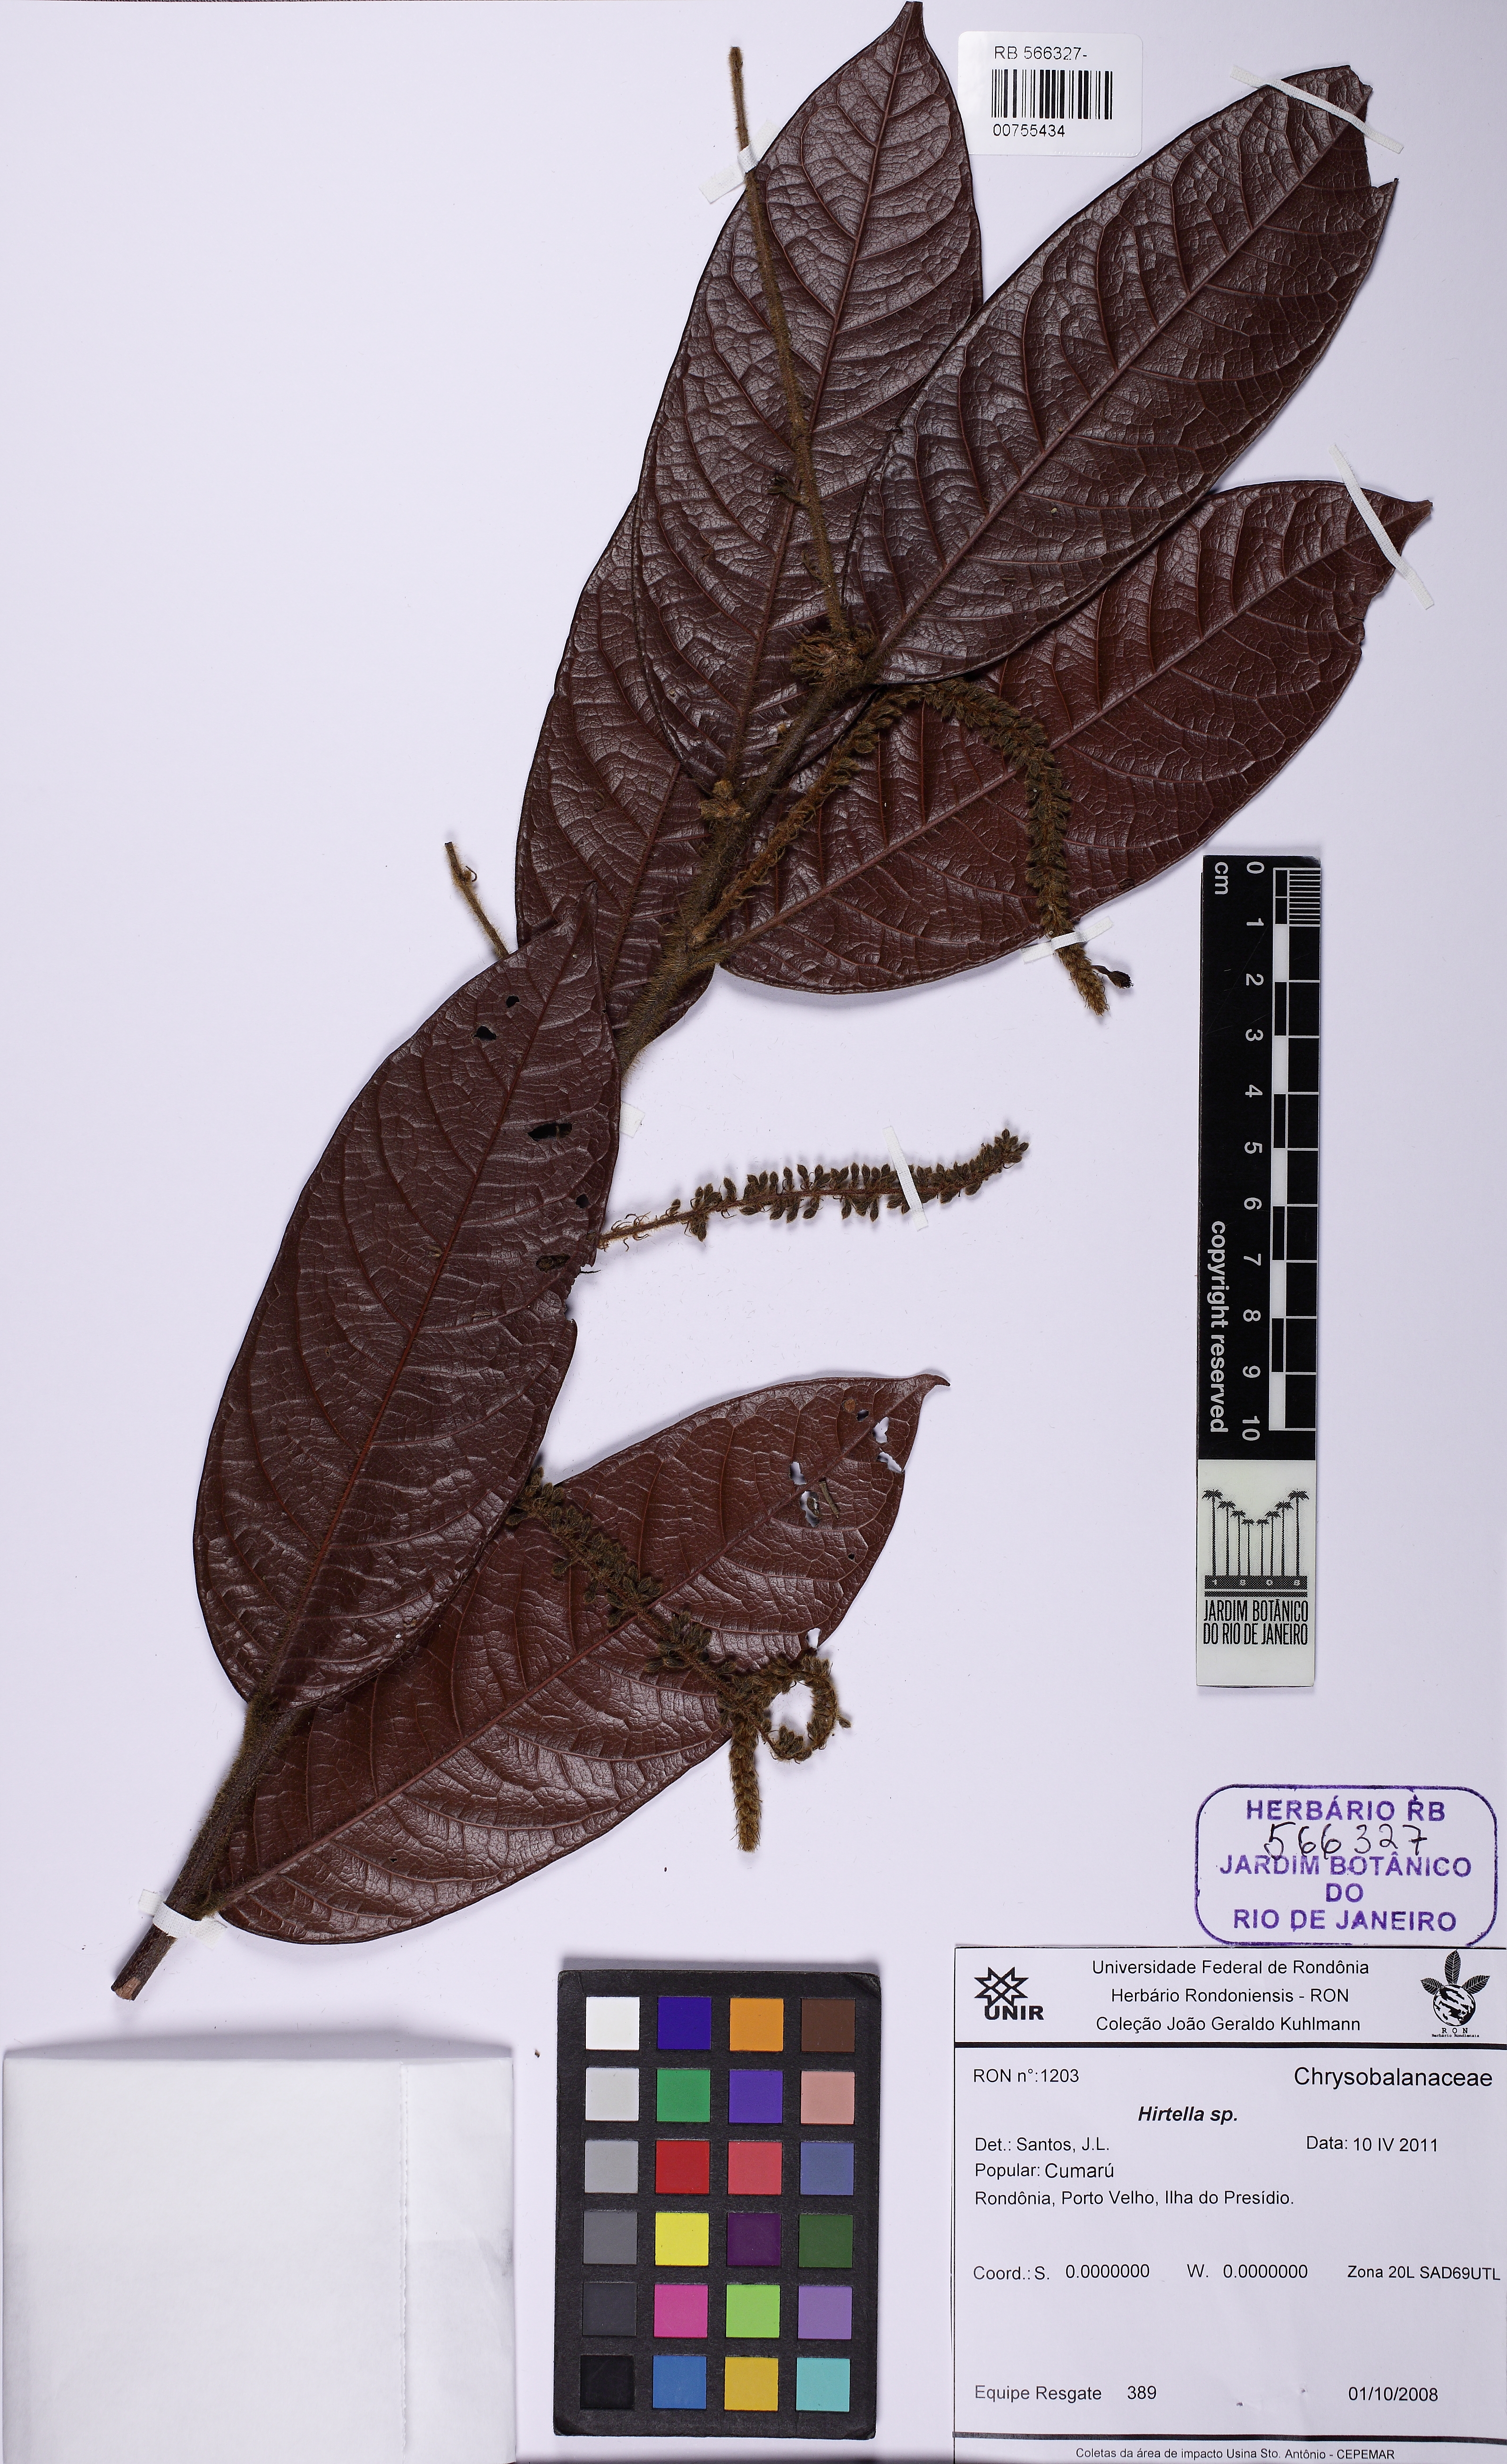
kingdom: Plantae
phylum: Tracheophyta
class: Magnoliopsida
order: Malpighiales
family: Chrysobalanaceae
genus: Hirtella
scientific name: Hirtella burchellii
